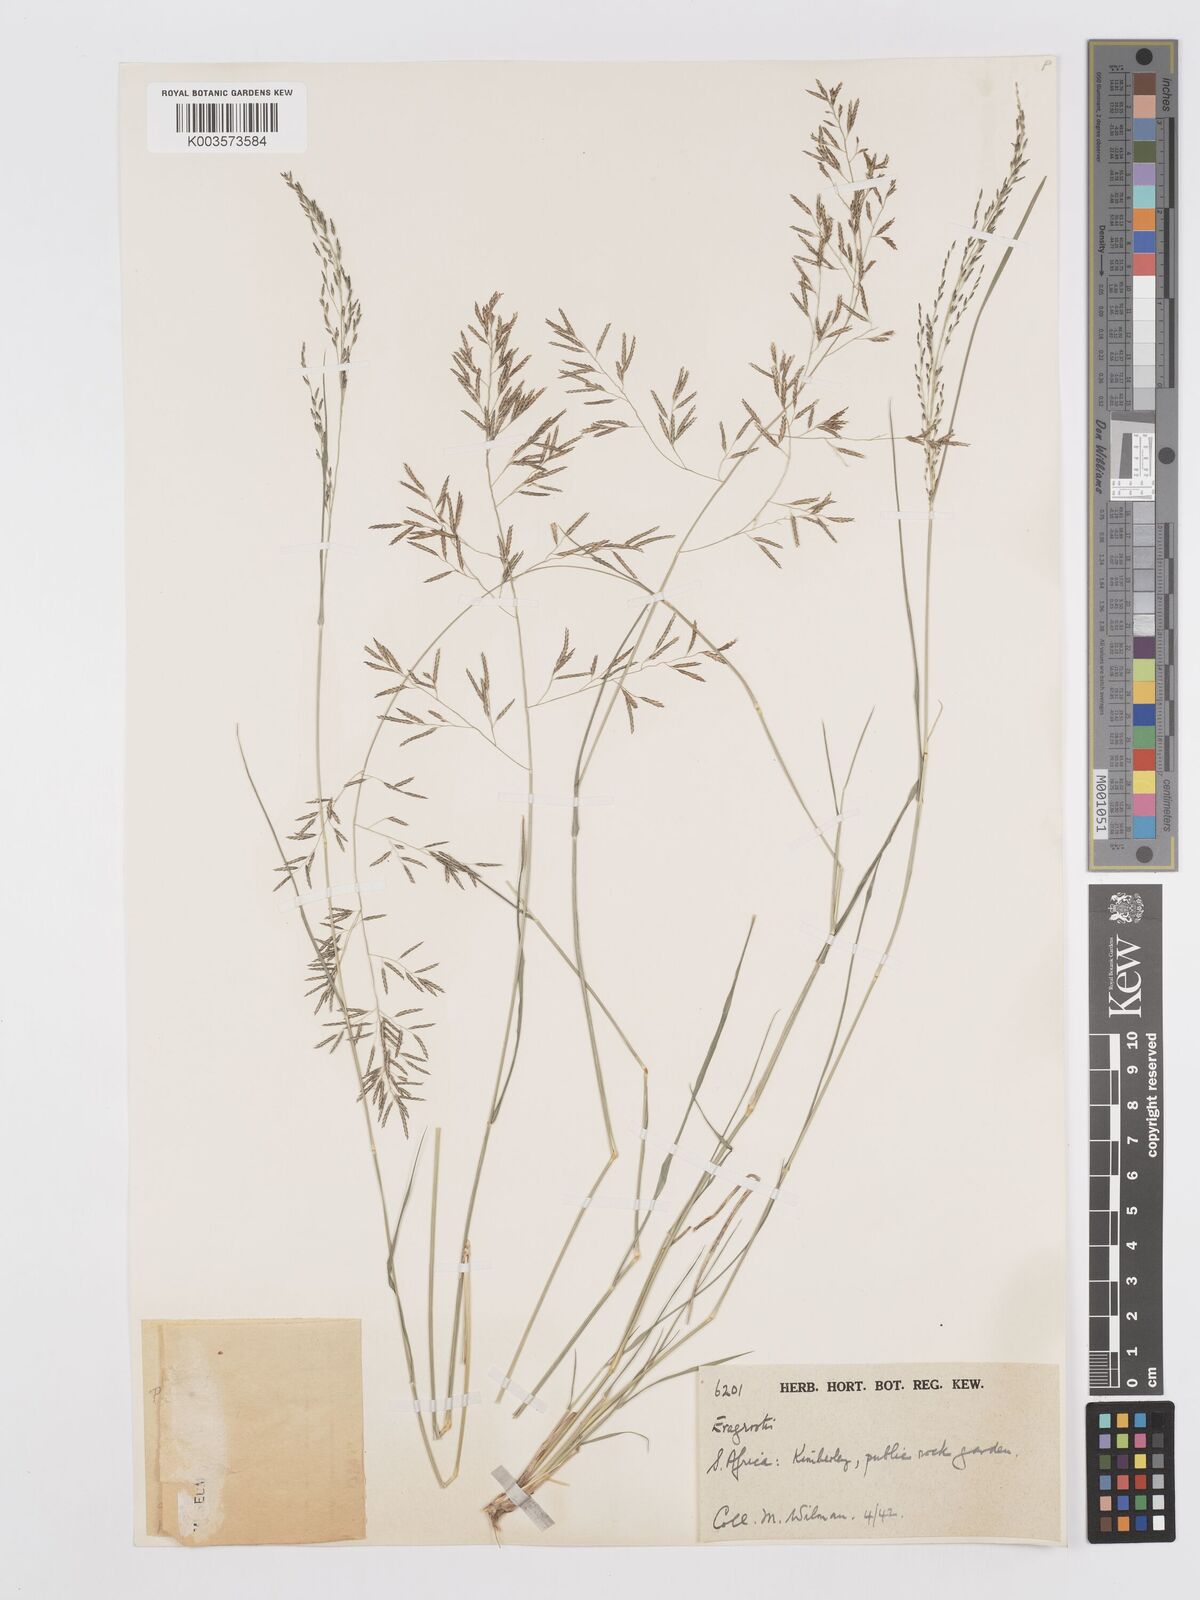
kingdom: Plantae
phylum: Tracheophyta
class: Liliopsida
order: Poales
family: Poaceae
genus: Eragrostis
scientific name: Eragrostis lehmanniana
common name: Lehmann lovegrass
